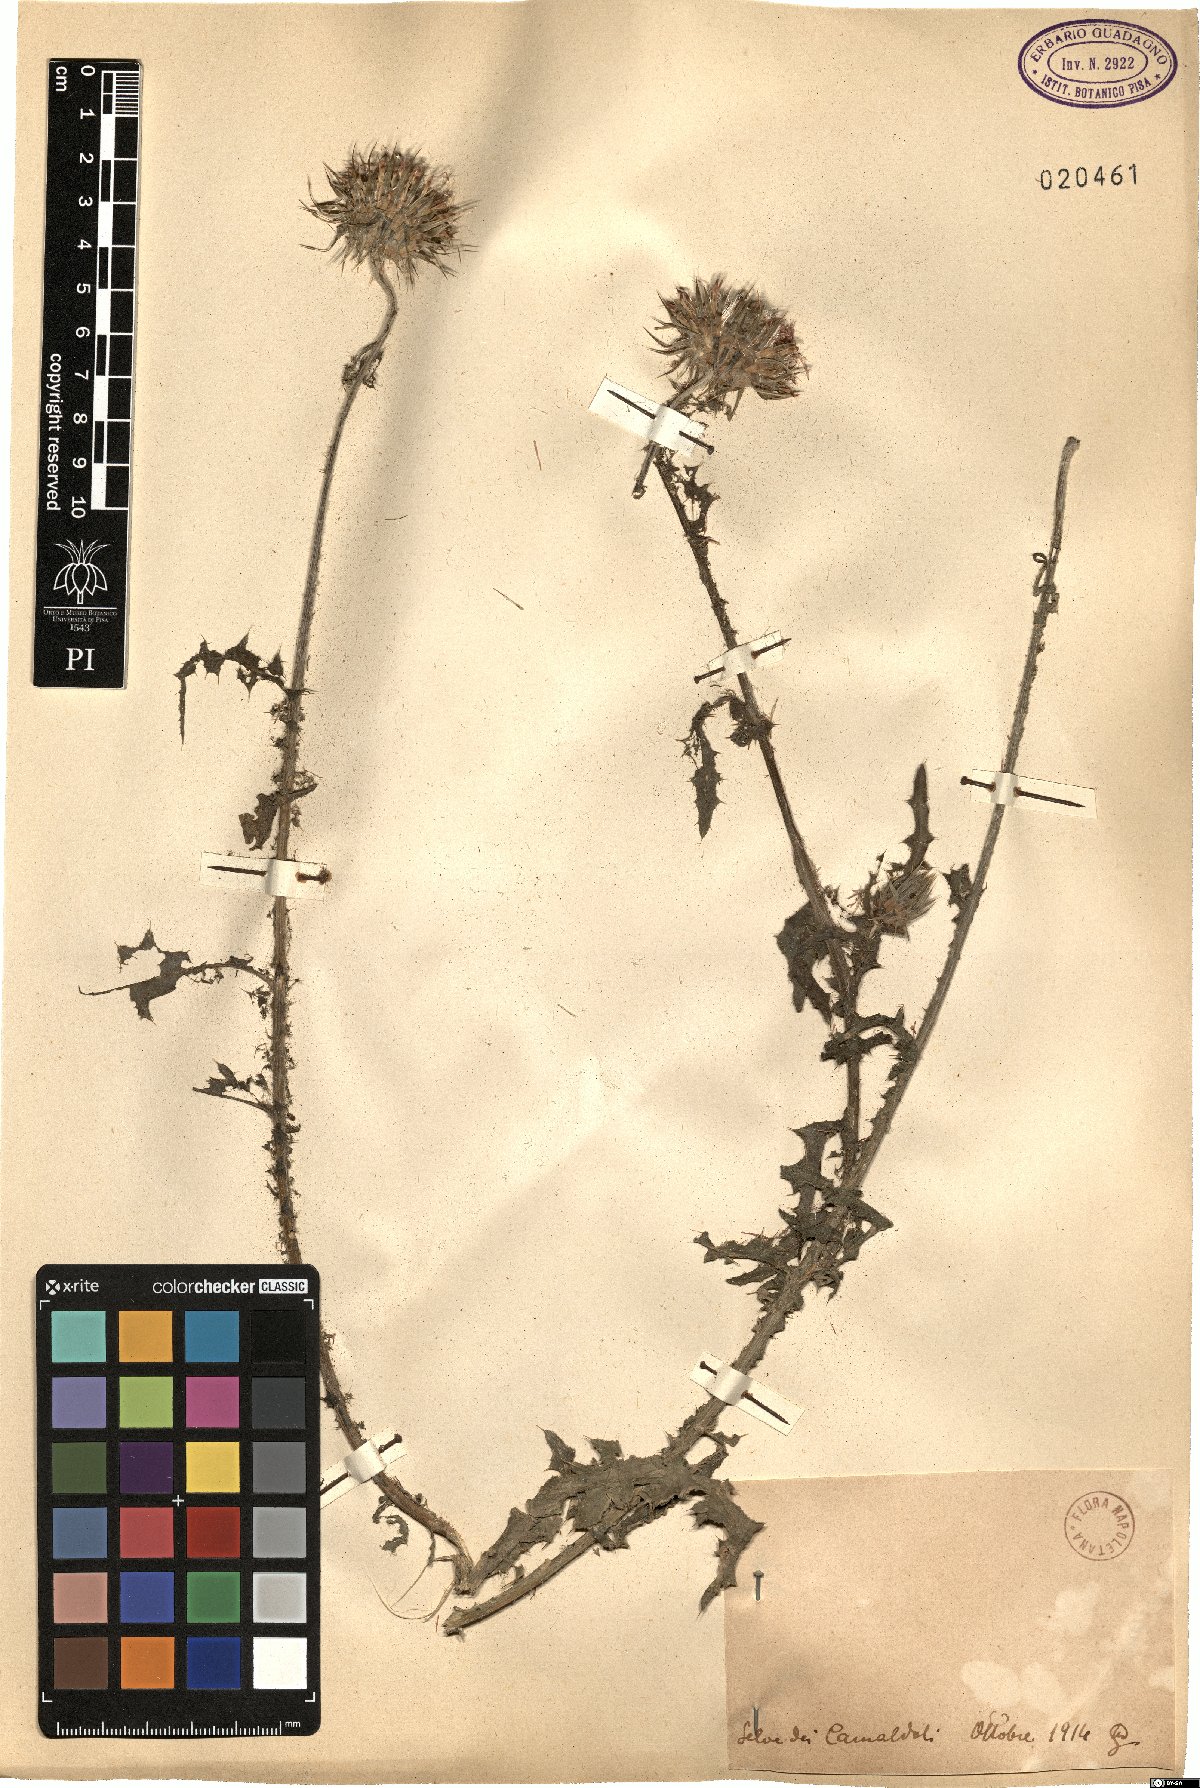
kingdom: Plantae
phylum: Tracheophyta
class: Magnoliopsida
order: Asterales
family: Asteraceae
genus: Carduus
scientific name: Carduus
